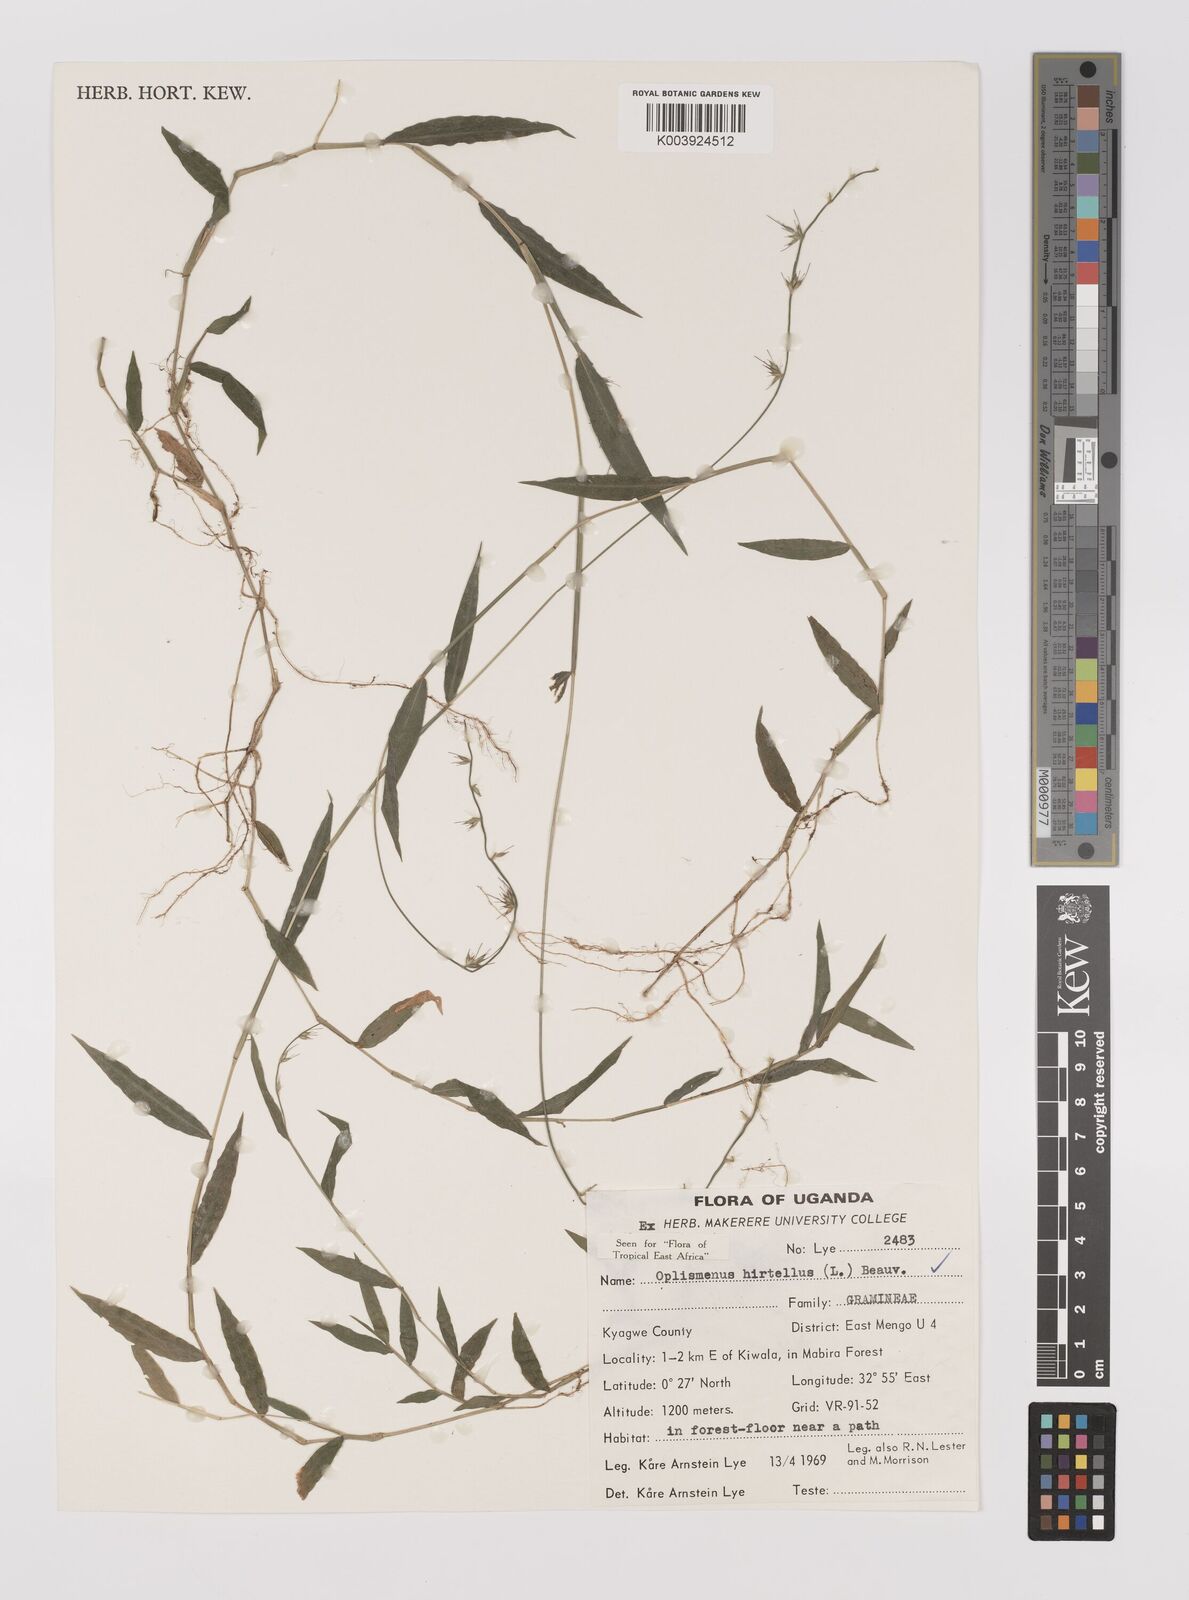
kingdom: Plantae
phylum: Tracheophyta
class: Liliopsida
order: Poales
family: Poaceae
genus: Oplismenus
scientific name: Oplismenus hirtellus
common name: Basketgrass
